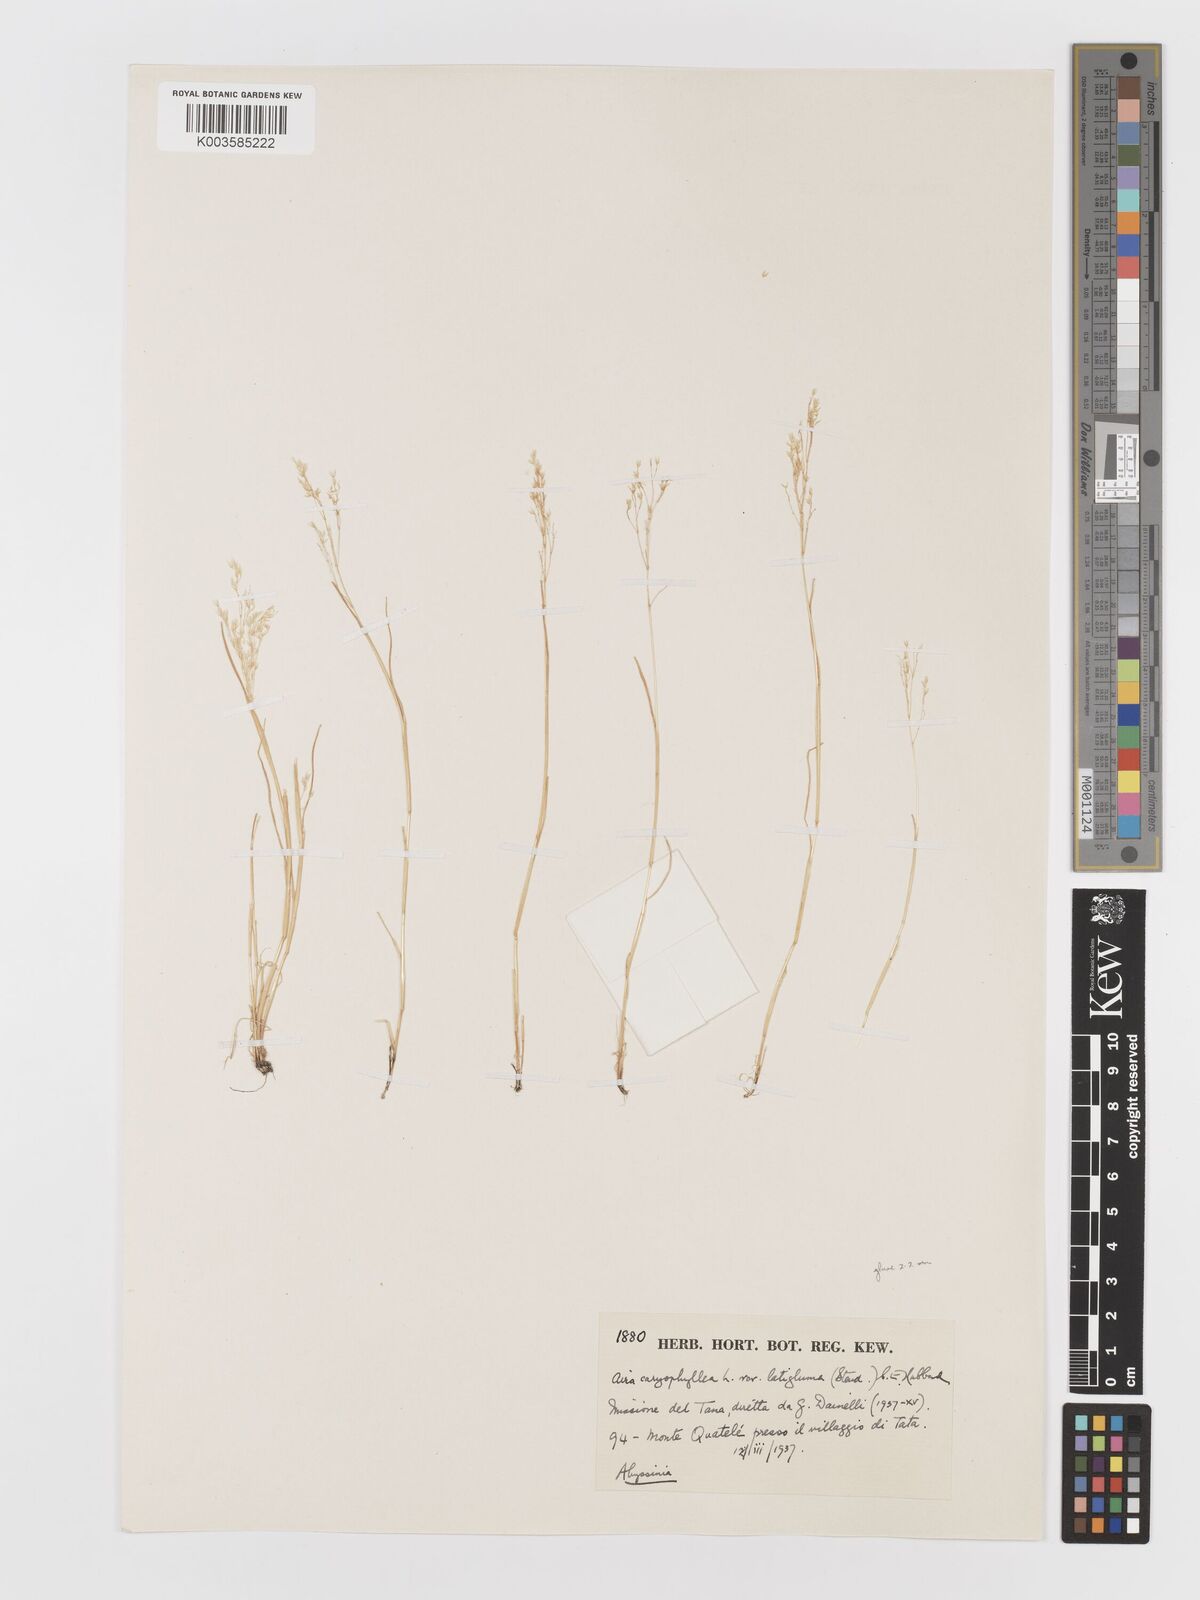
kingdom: Plantae
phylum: Tracheophyta
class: Liliopsida
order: Poales
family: Poaceae
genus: Aira
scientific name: Aira caryophyllea
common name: Silver hairgrass
